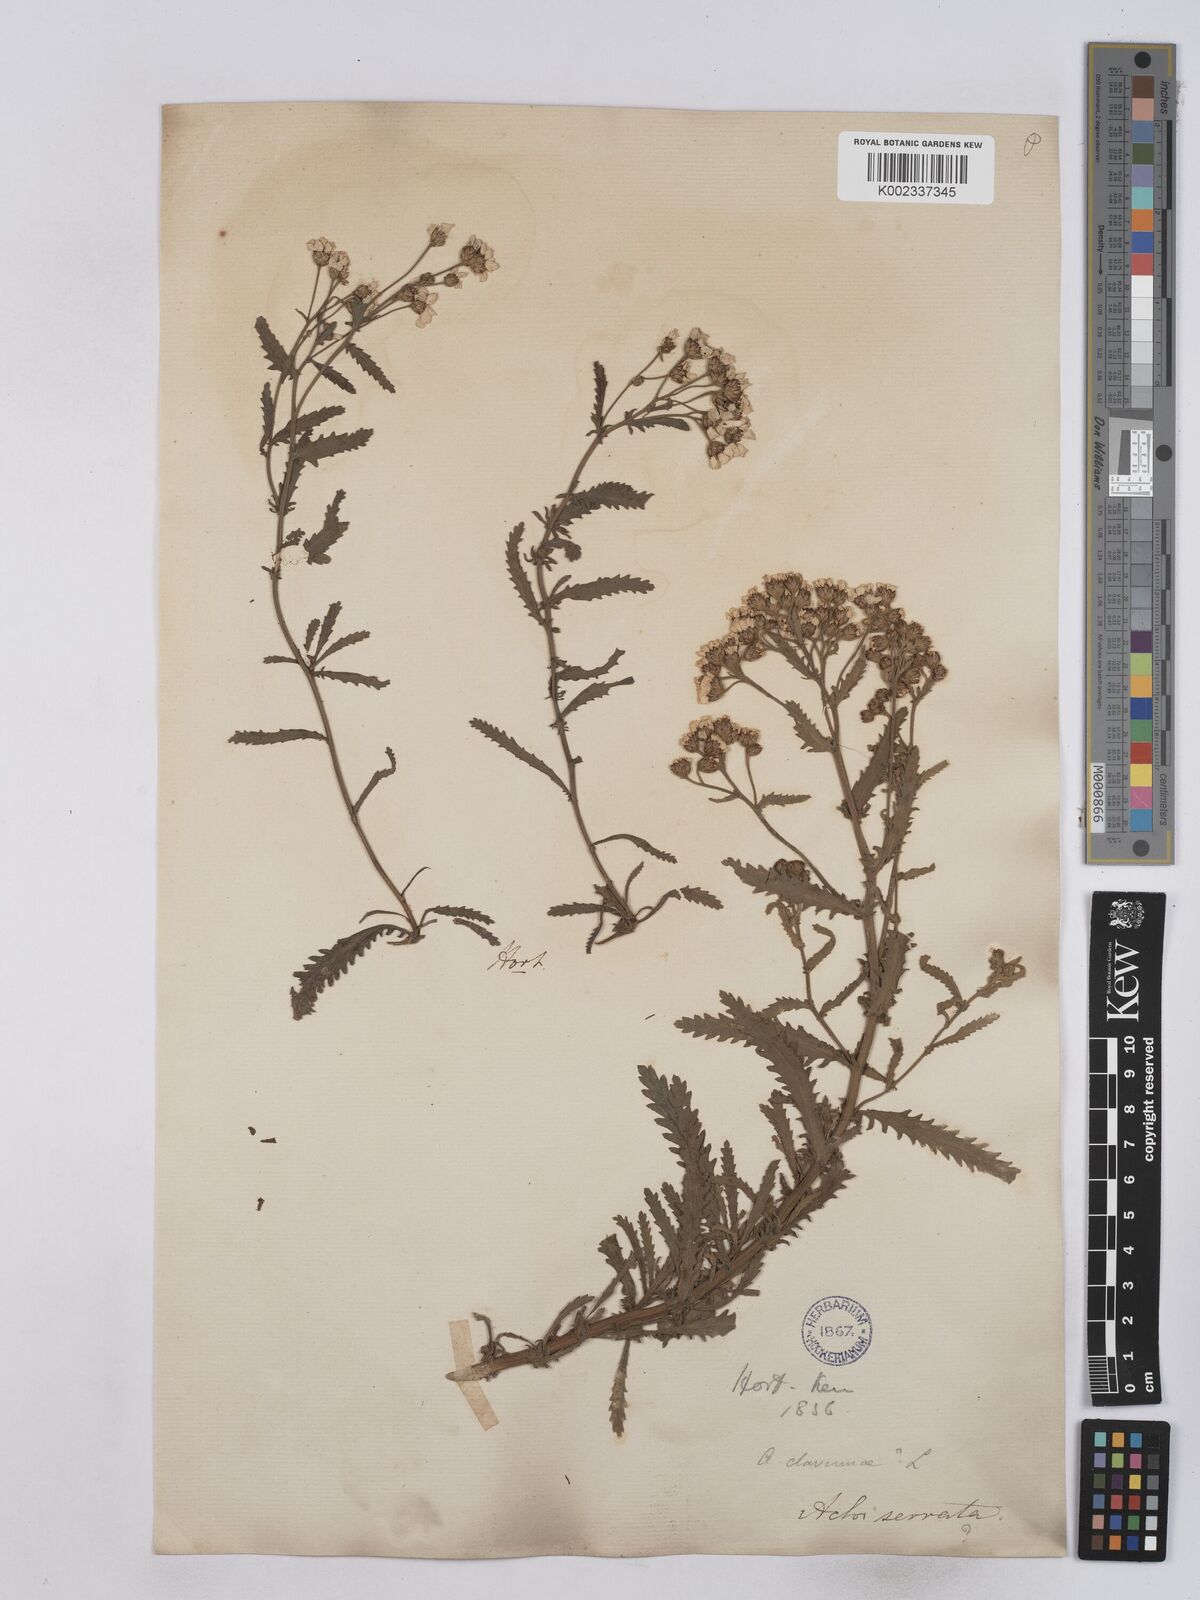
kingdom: Plantae
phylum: Tracheophyta
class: Magnoliopsida
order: Asterales
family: Asteraceae
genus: Achillea
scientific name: Achillea serrata
